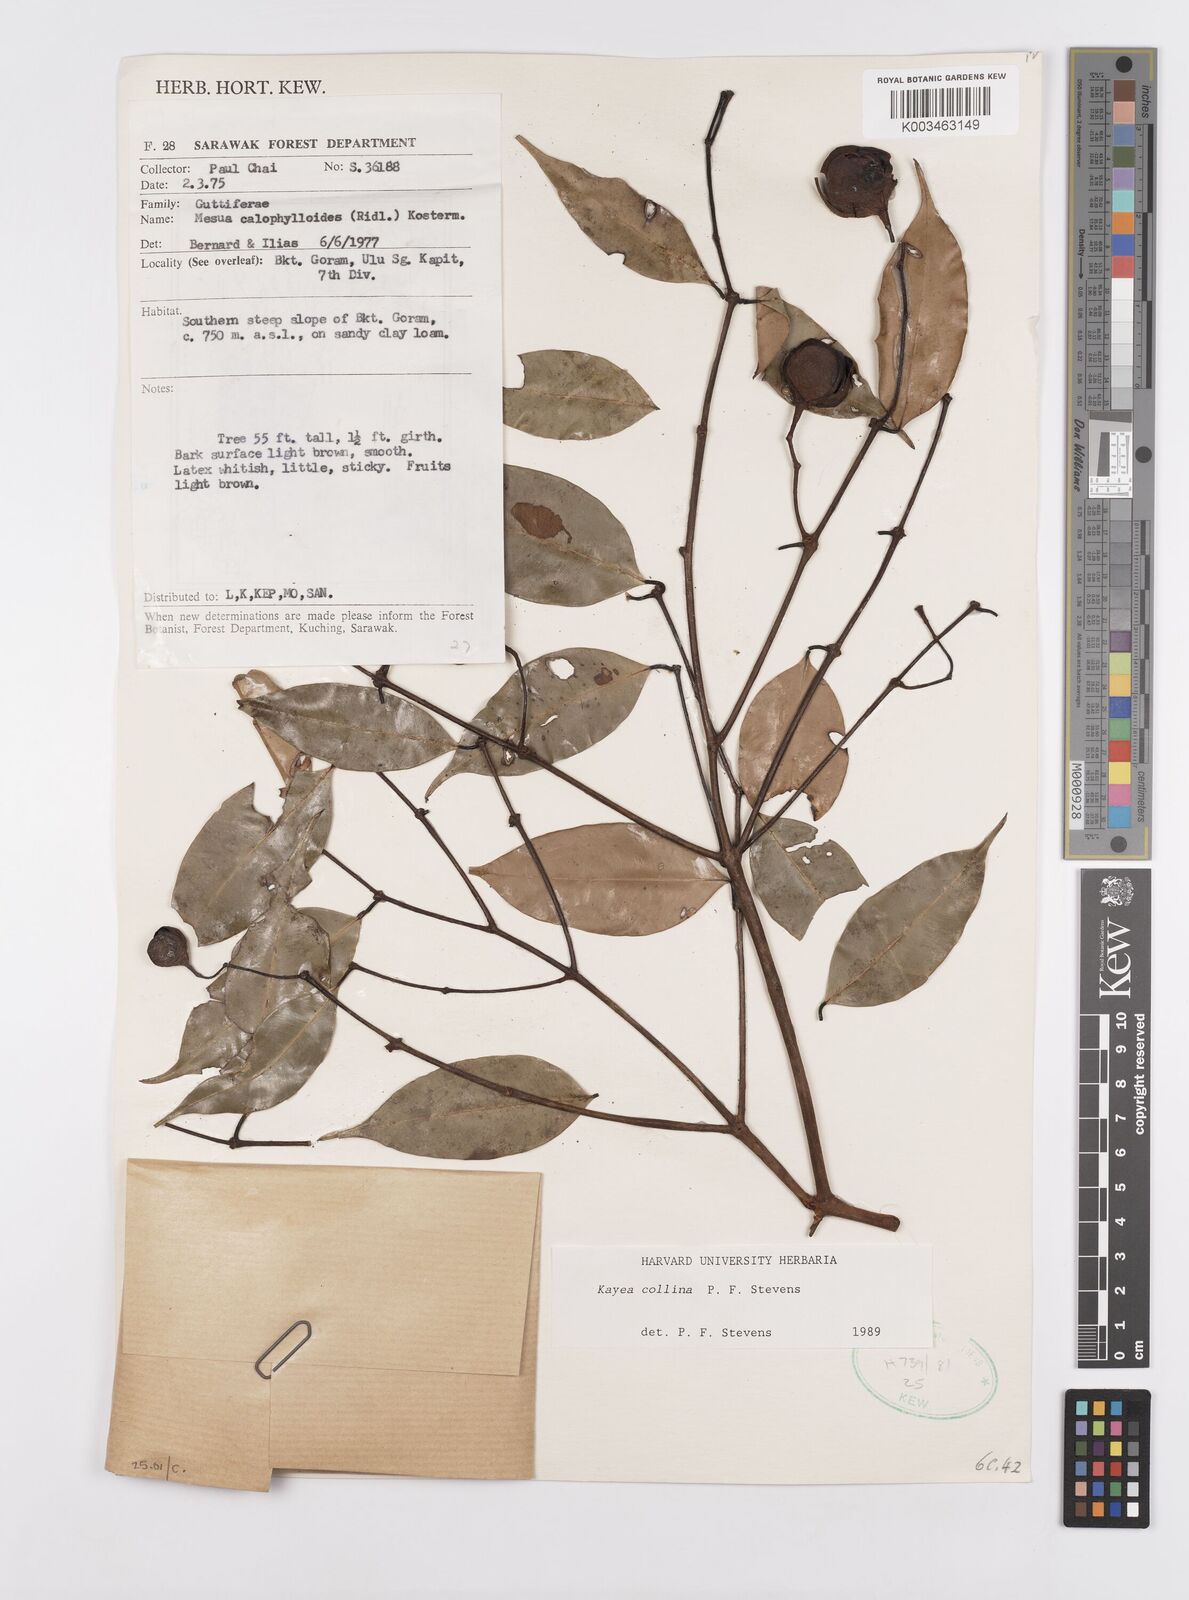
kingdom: Plantae
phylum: Tracheophyta
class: Magnoliopsida
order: Malpighiales
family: Calophyllaceae
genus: Kayea
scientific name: Kayea
